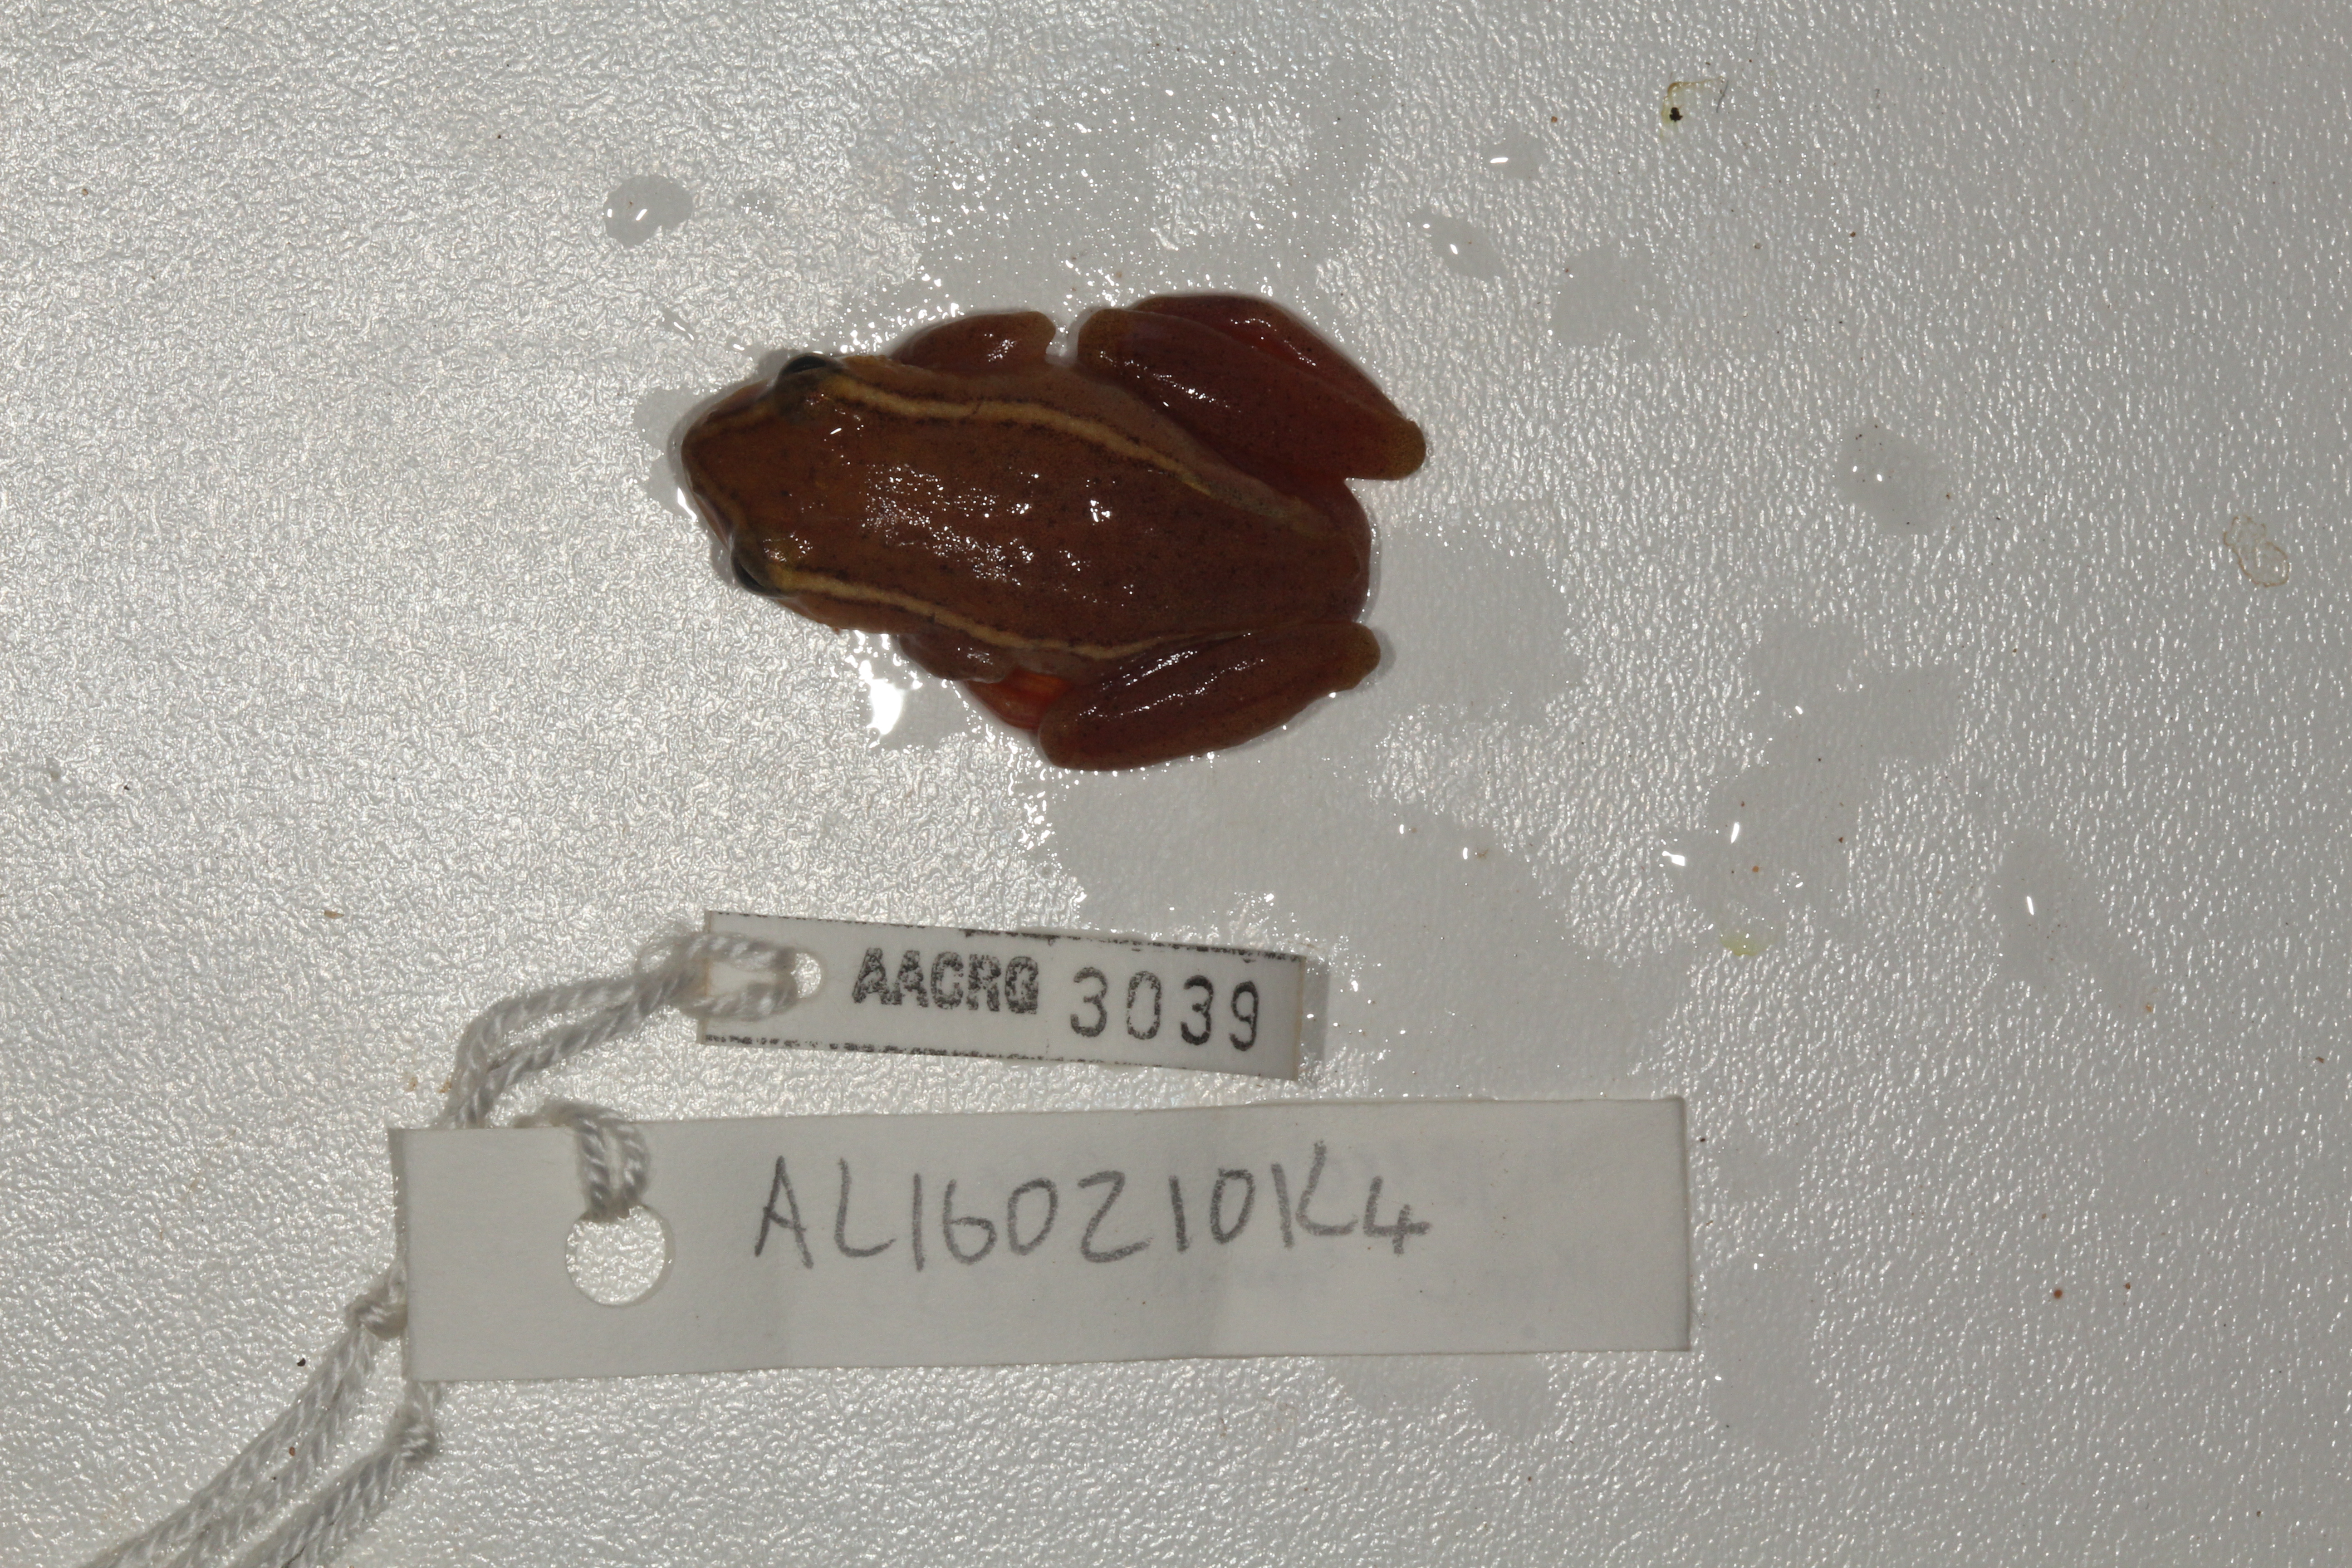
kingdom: Animalia
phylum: Chordata
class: Amphibia
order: Anura
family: Hyperoliidae
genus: Hyperolius
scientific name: Hyperolius argus
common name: Argus reed frog
